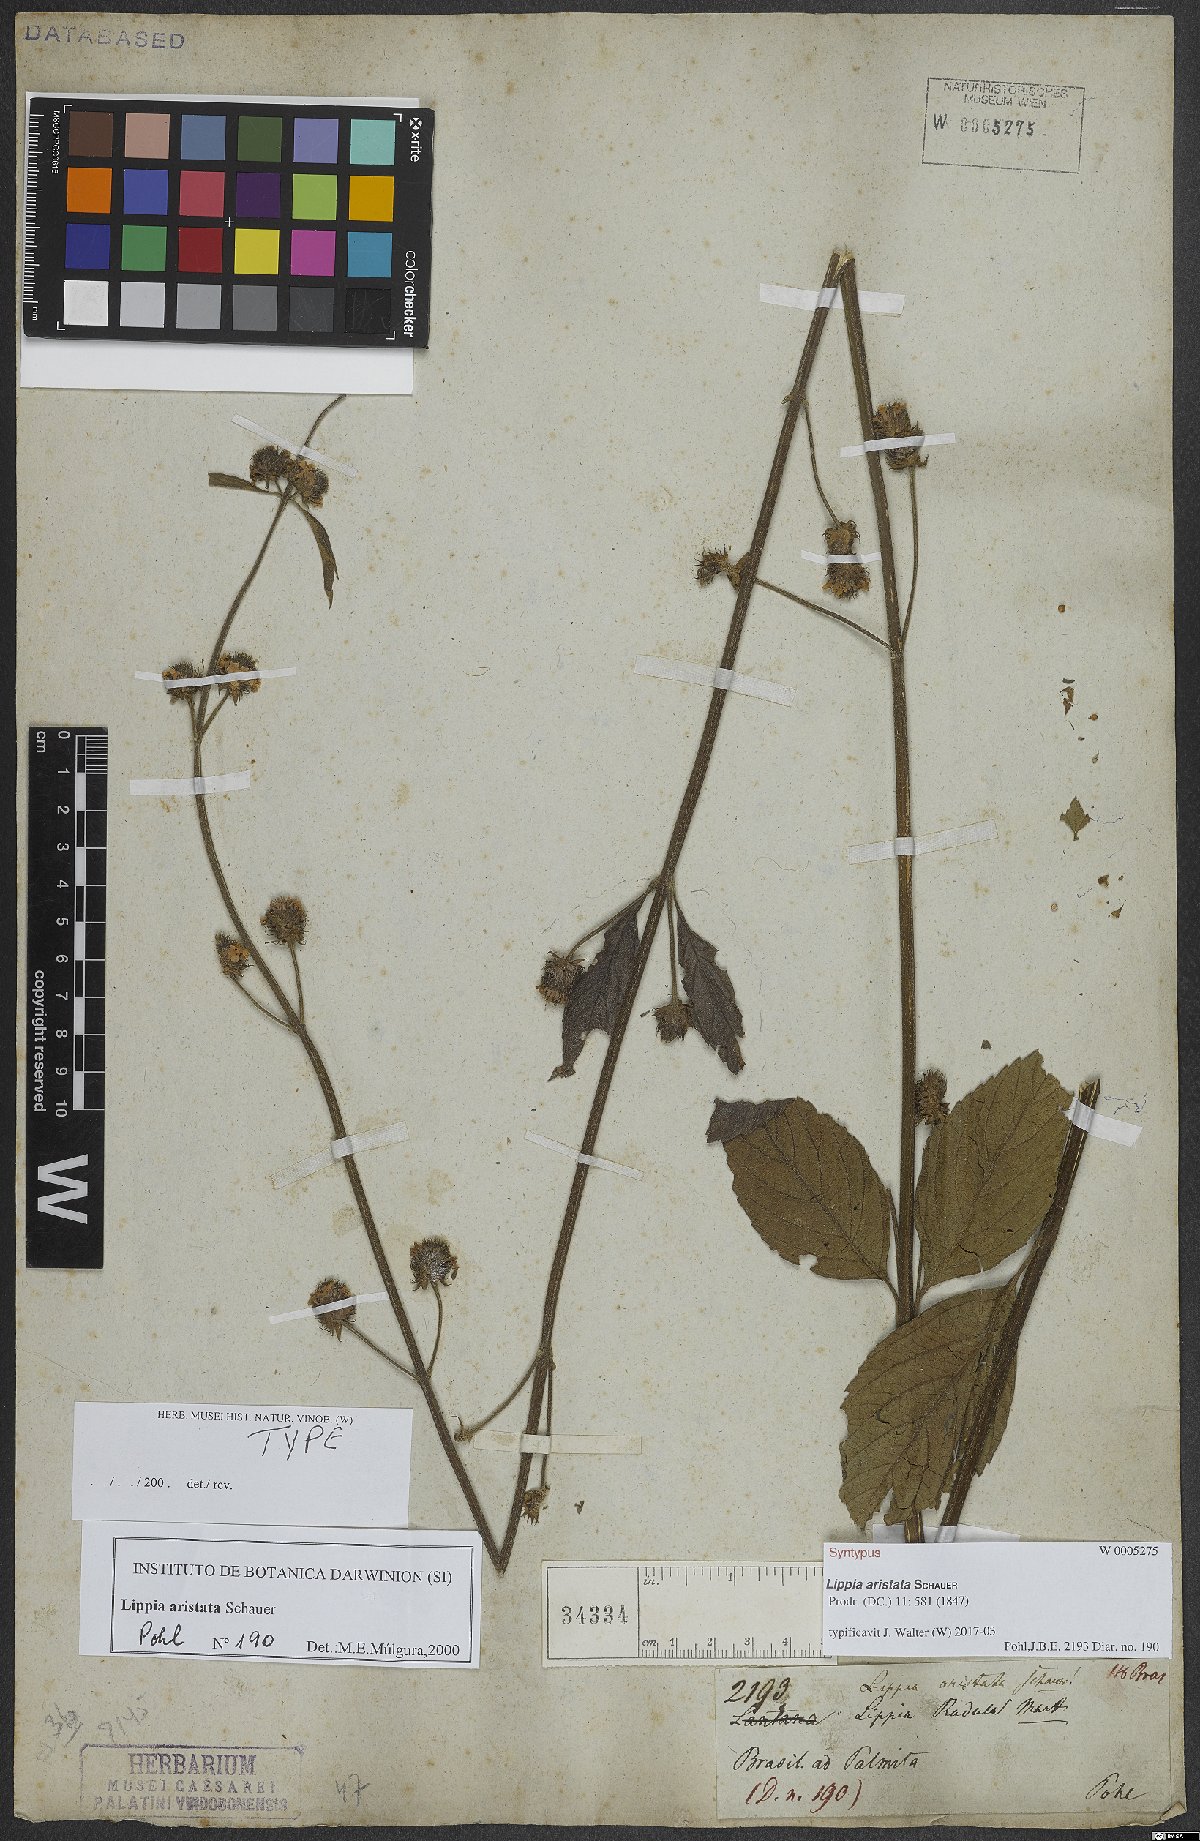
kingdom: Plantae
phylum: Tracheophyta
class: Magnoliopsida
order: Lamiales
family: Verbenaceae
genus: Lippia
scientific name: Lippia aristata
